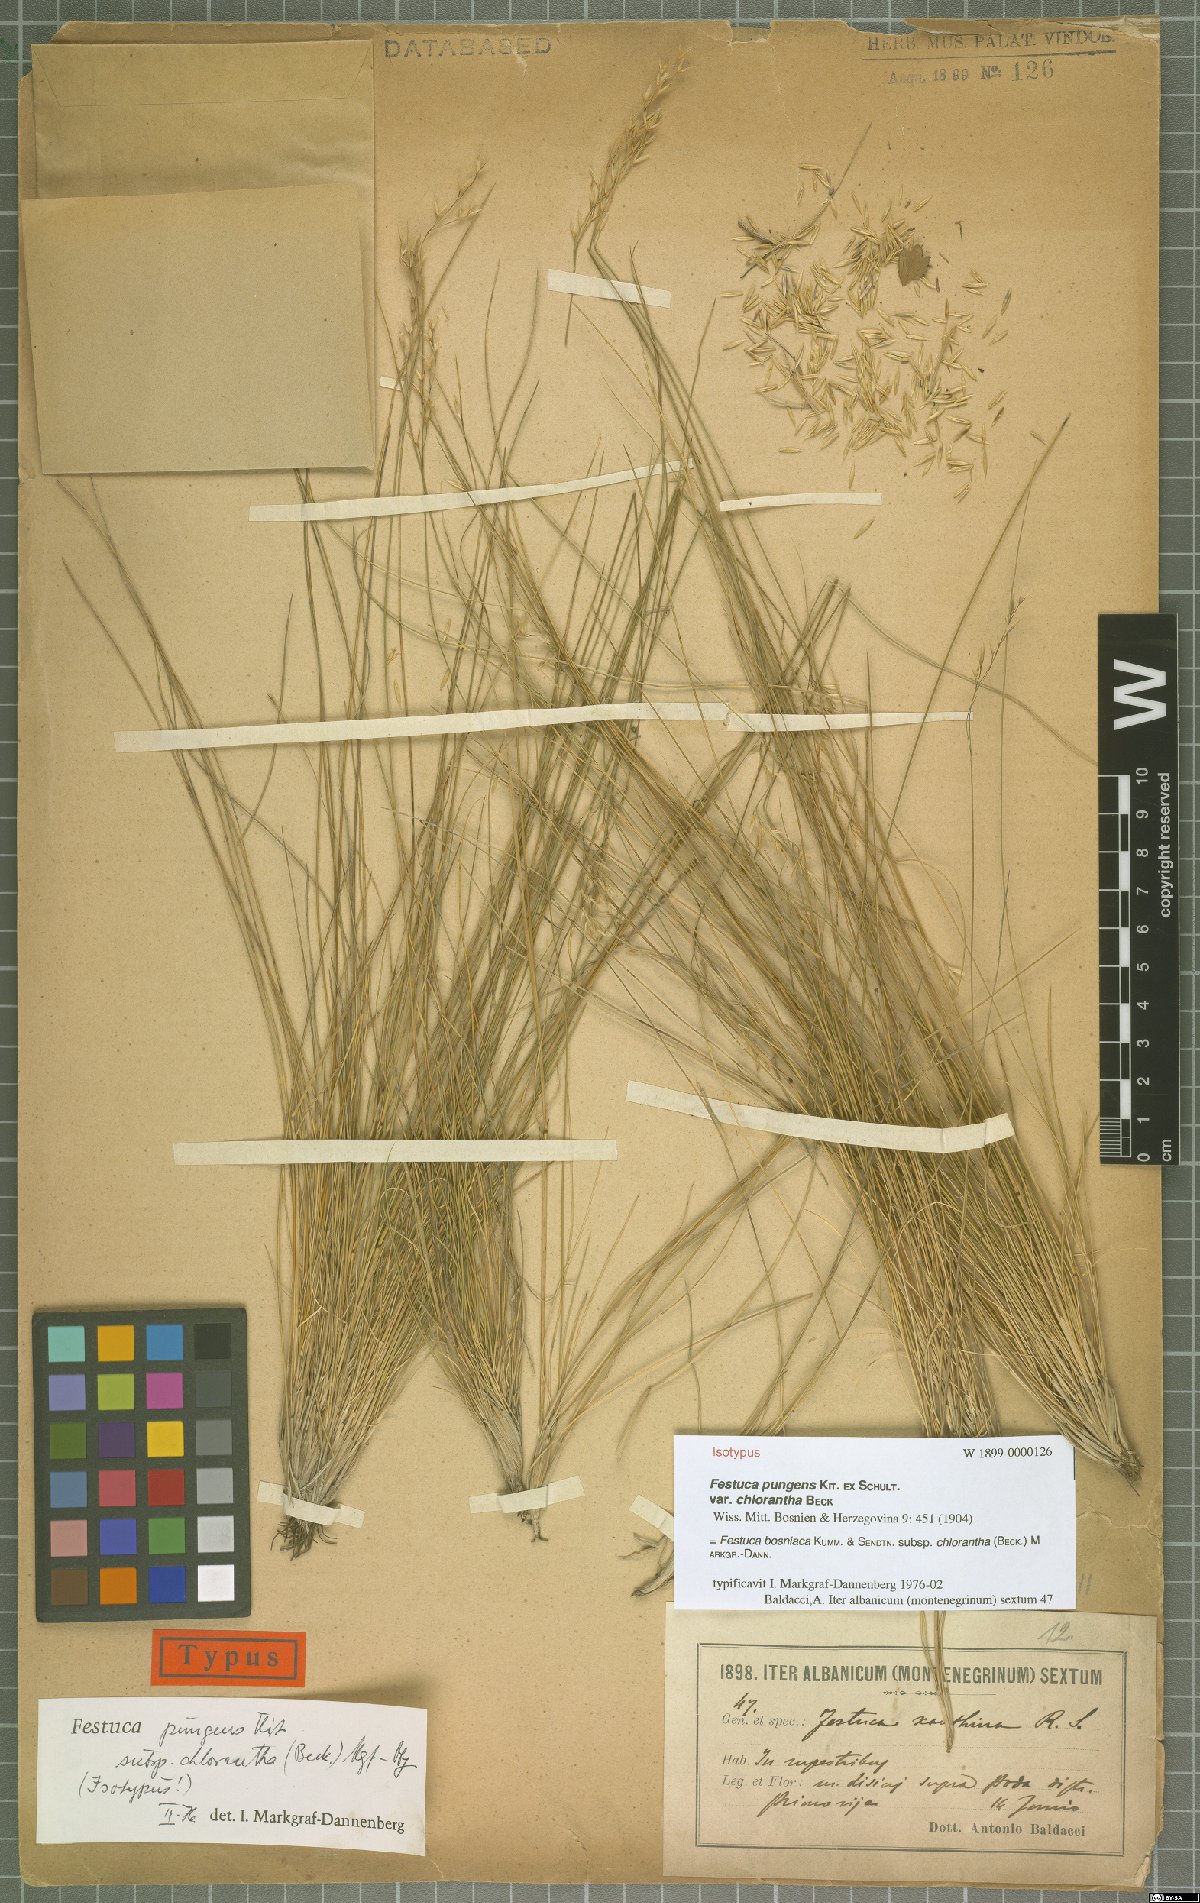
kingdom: Plantae
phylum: Tracheophyta
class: Liliopsida
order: Poales
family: Poaceae
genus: Festuca
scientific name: Festuca bosniaca
